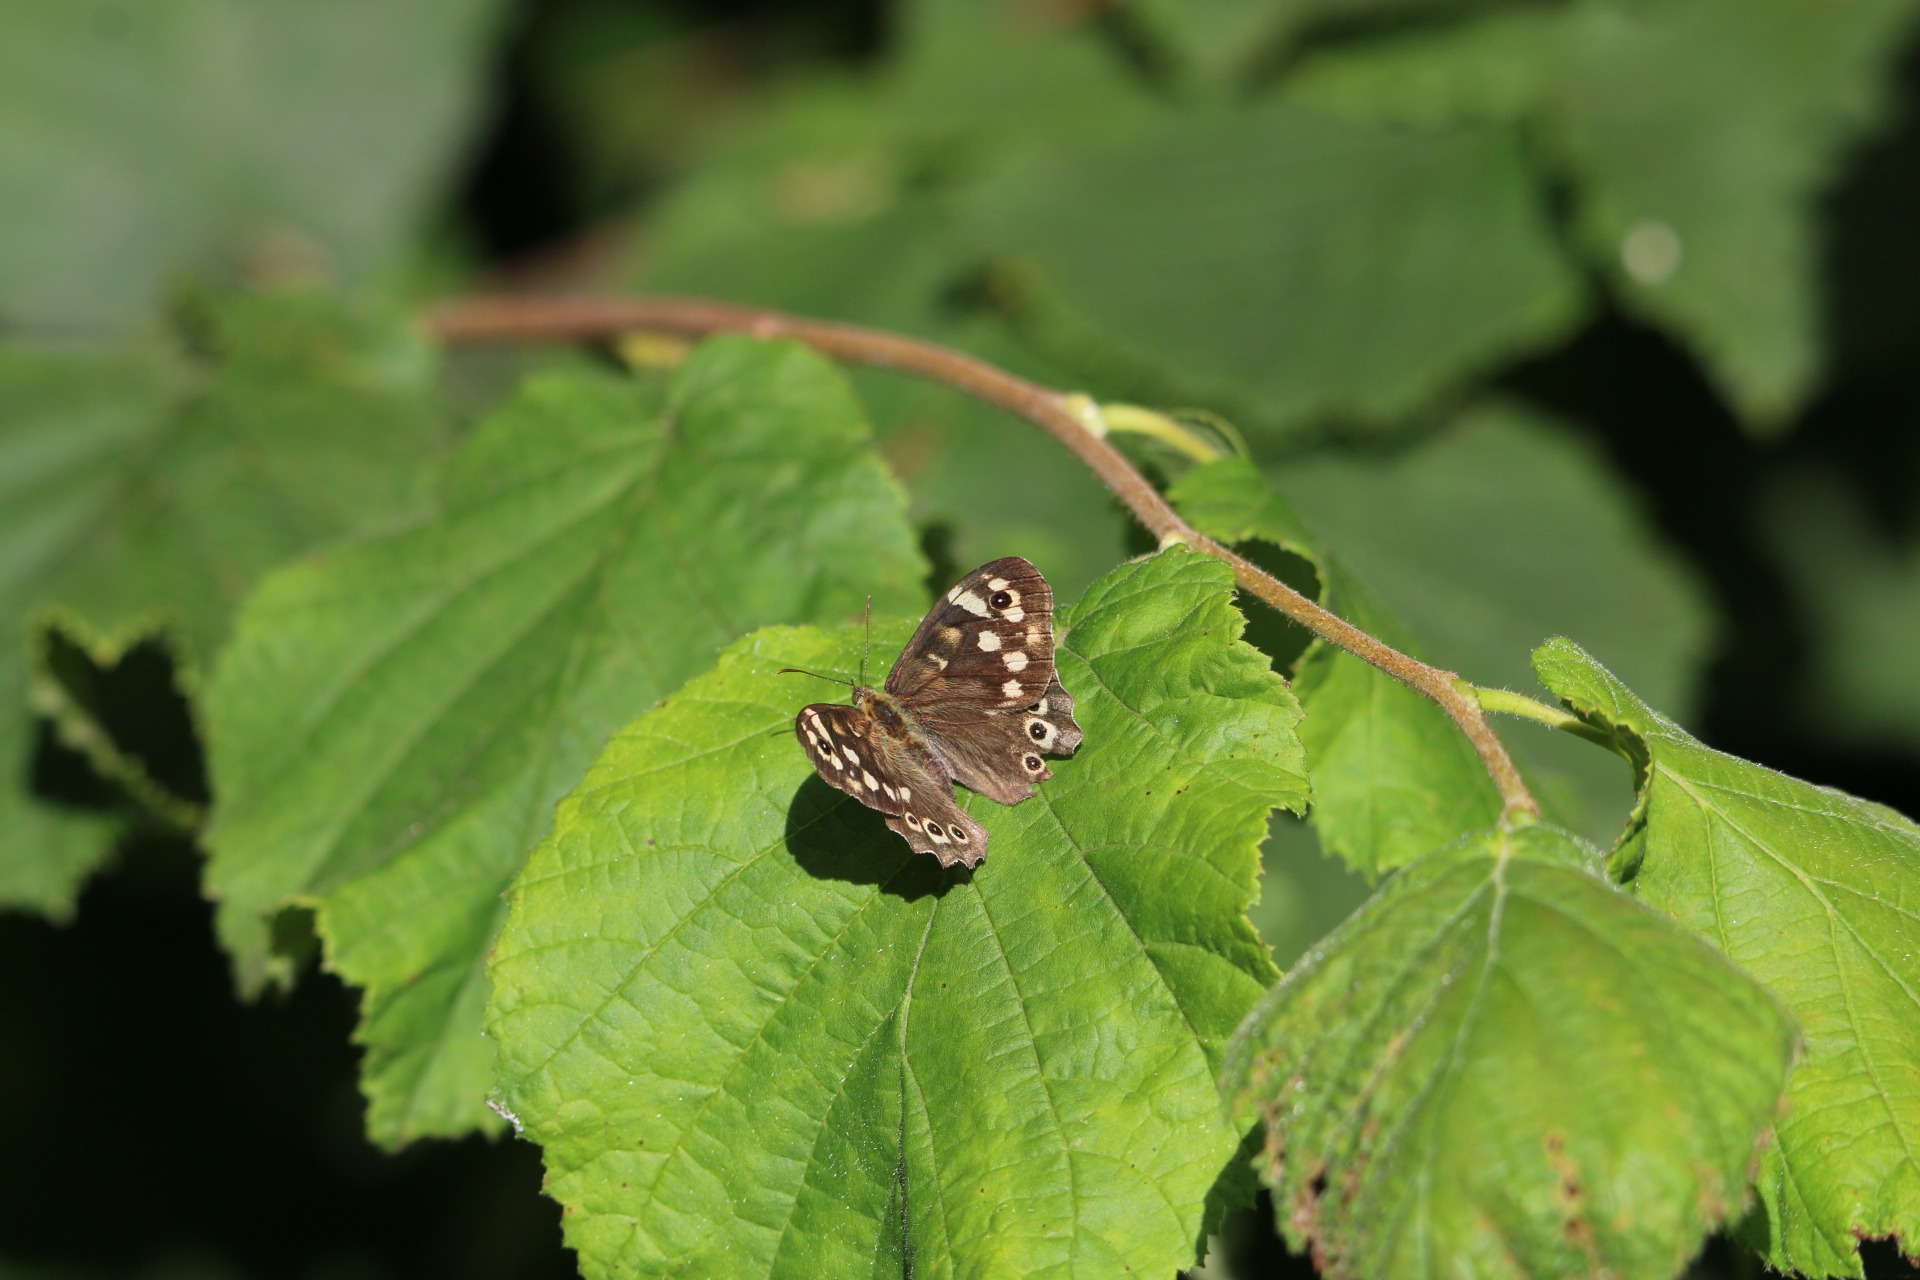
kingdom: Animalia
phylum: Arthropoda
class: Insecta
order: Lepidoptera
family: Nymphalidae
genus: Pararge
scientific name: Pararge aegeria
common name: Skovrandøje
